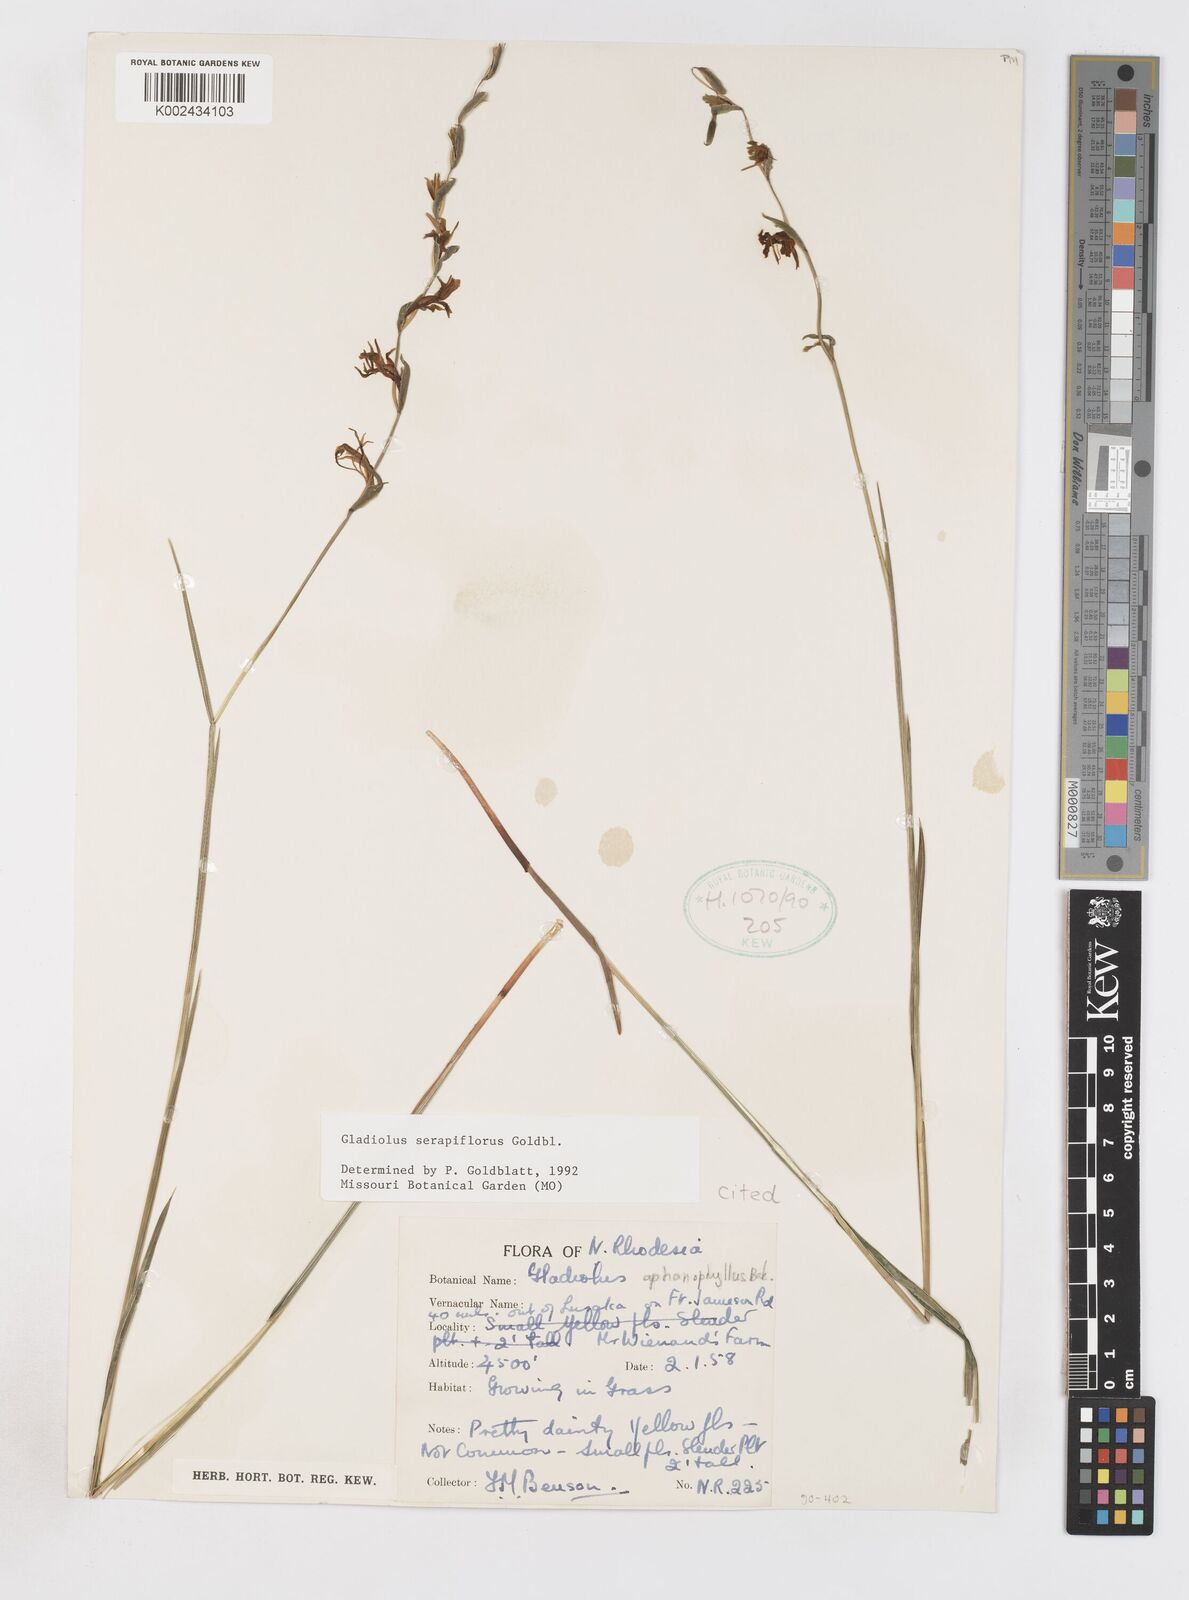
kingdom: Plantae
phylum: Tracheophyta
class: Liliopsida
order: Asparagales
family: Iridaceae
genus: Gladiolus
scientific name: Gladiolus serapiiflorus
